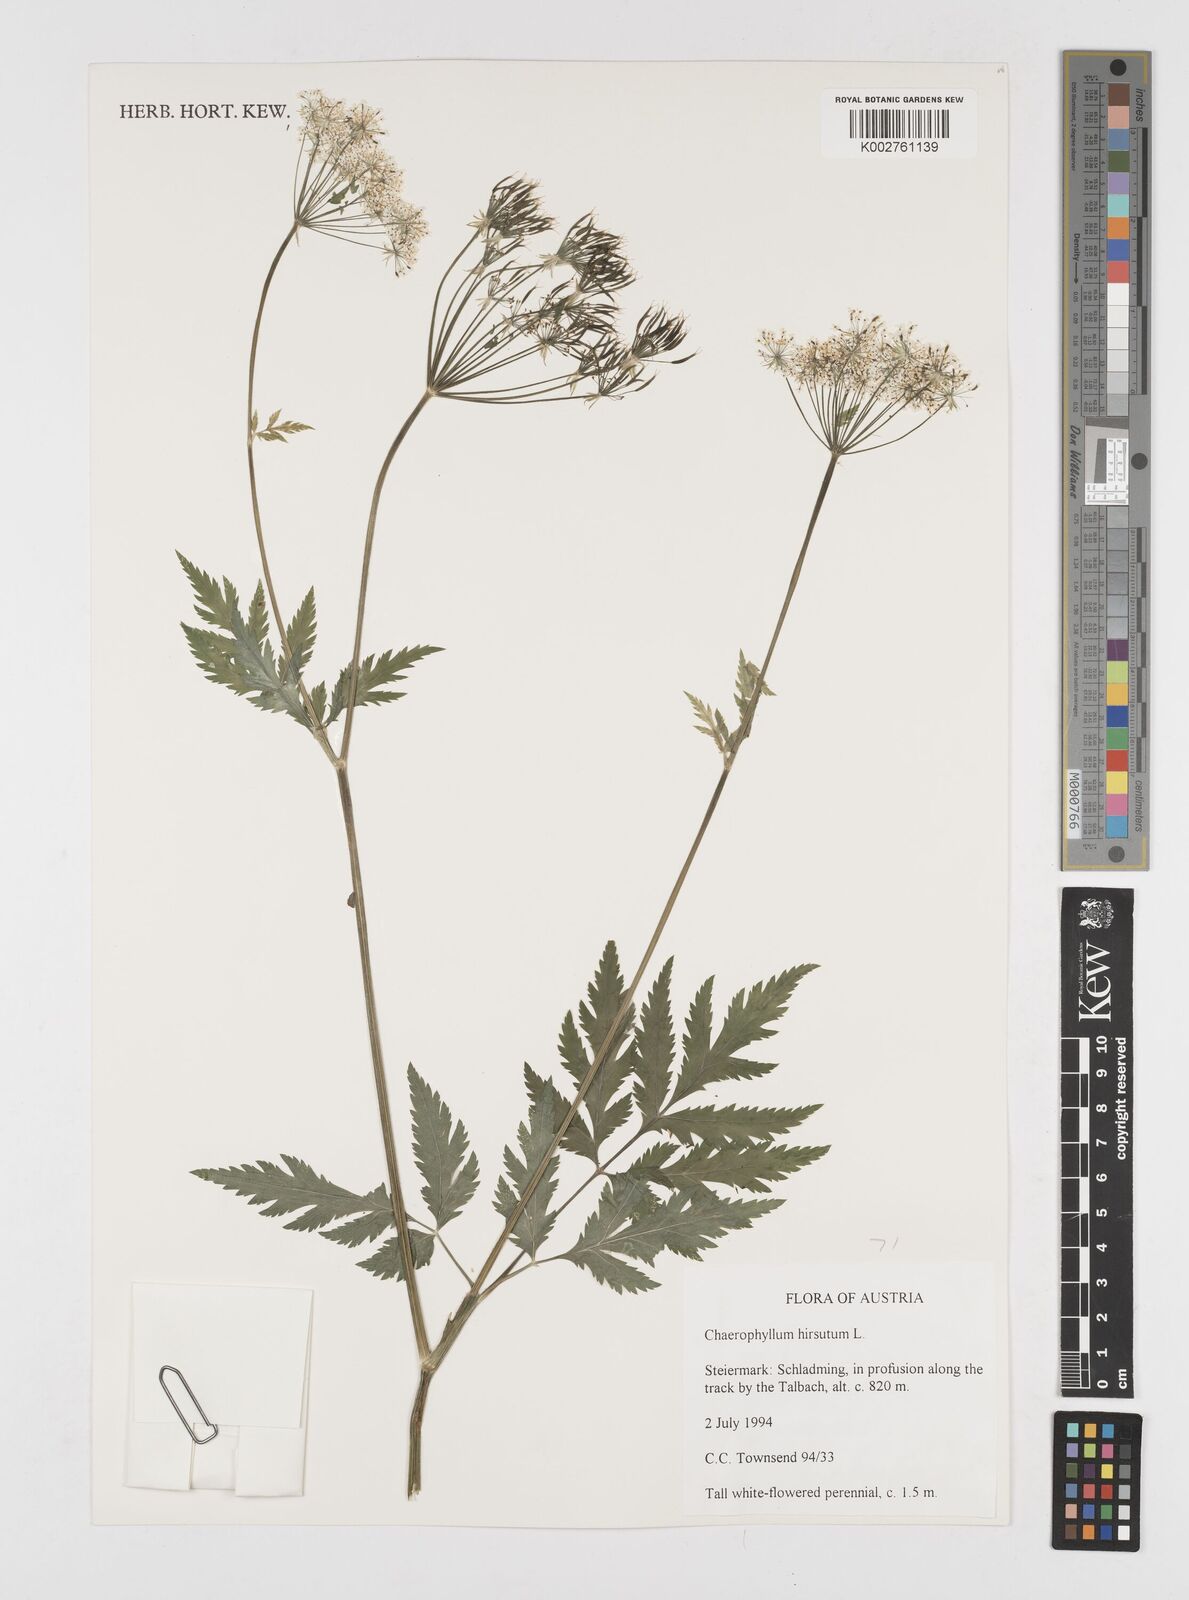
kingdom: Plantae
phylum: Tracheophyta
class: Magnoliopsida
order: Apiales
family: Apiaceae
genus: Chaerophyllum
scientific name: Chaerophyllum hirsutum
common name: Hairy chervil
